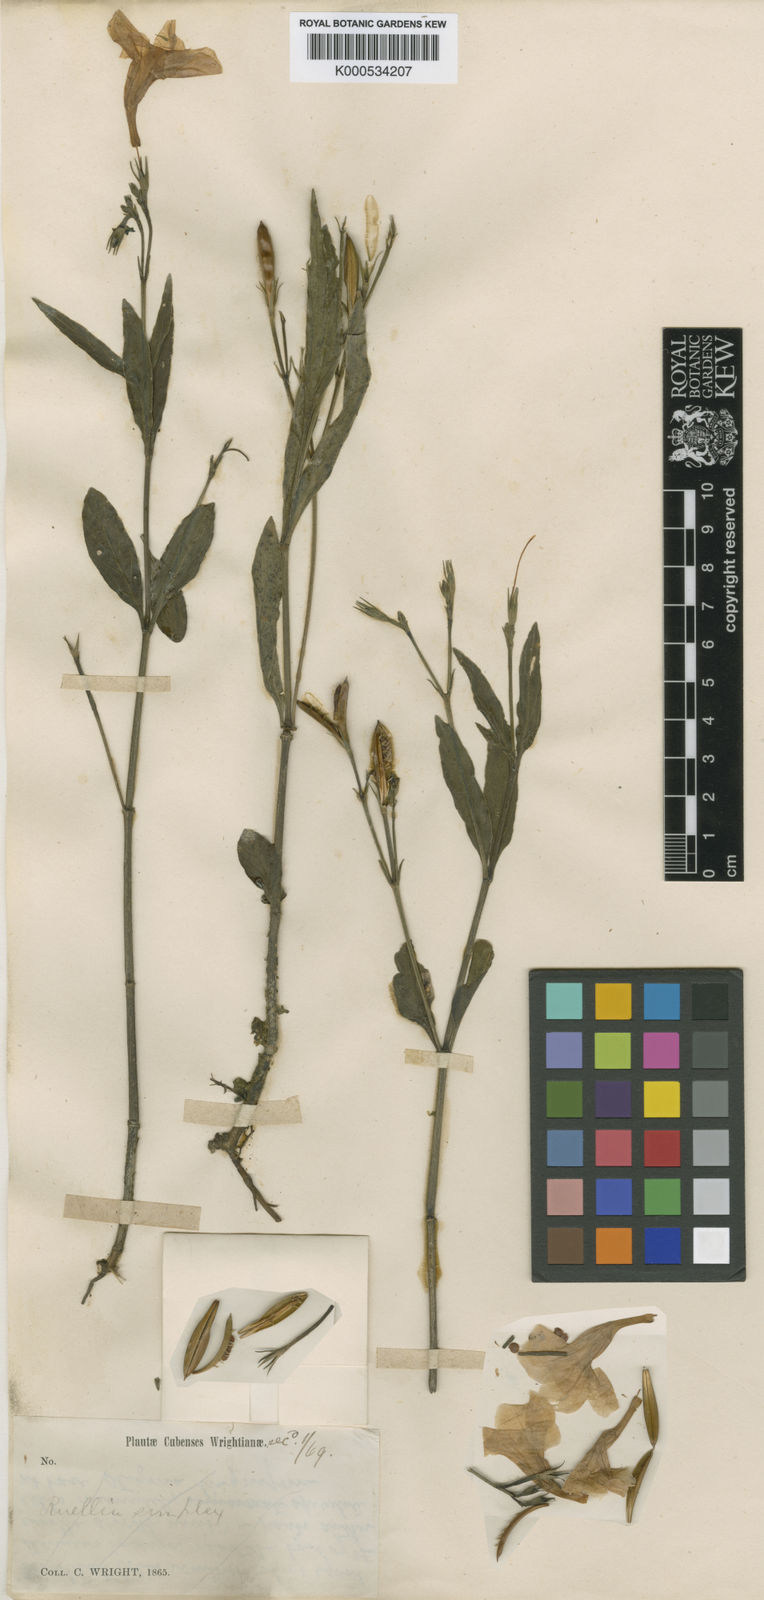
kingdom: Plantae
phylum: Tracheophyta
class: Magnoliopsida
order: Lamiales
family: Acanthaceae
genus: Ruellia
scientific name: Ruellia simplex
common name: Softseed wild petunia
